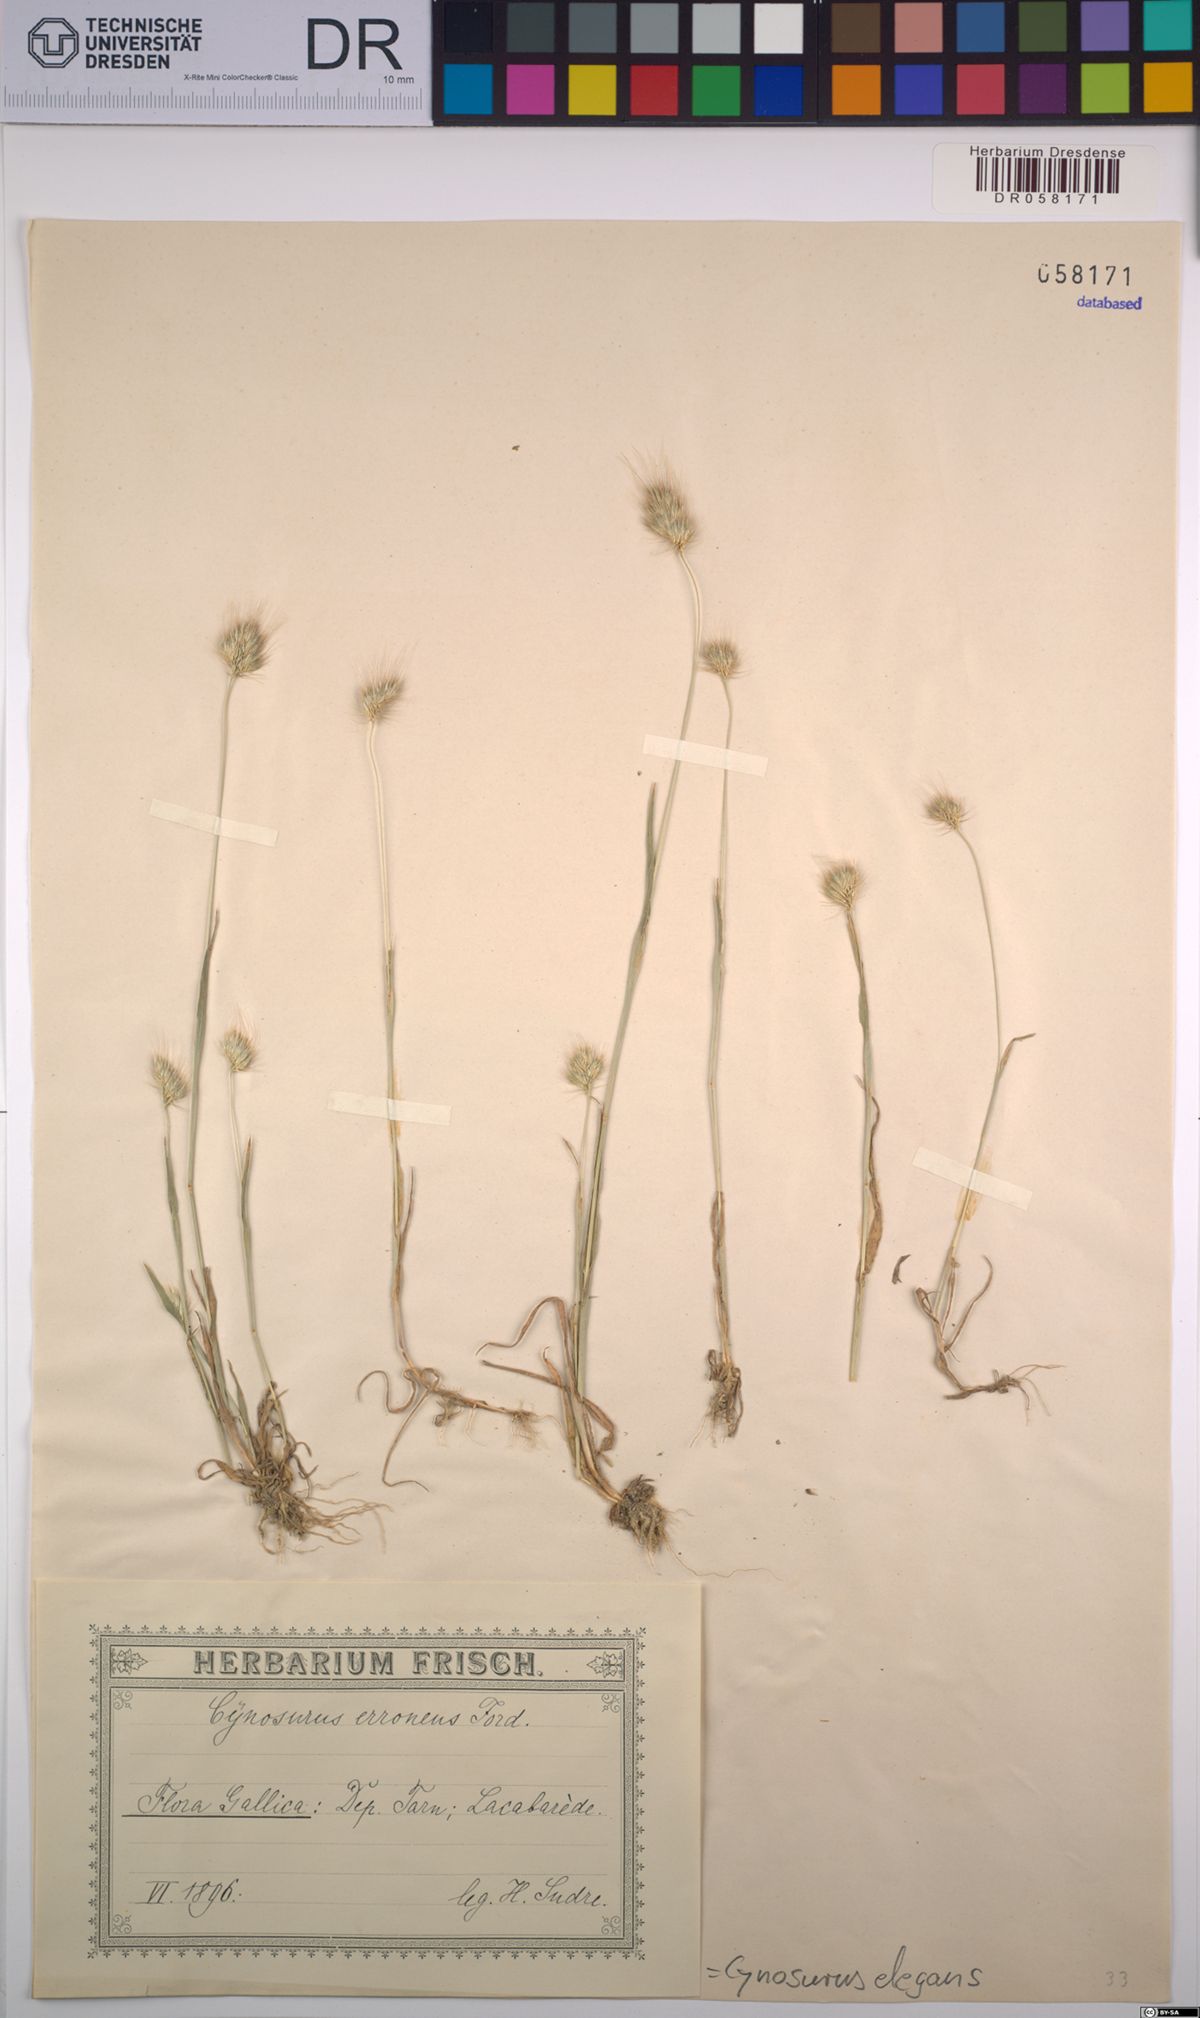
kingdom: Plantae
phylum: Tracheophyta
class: Liliopsida
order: Poales
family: Poaceae
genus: Cynosurus
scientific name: Cynosurus elegans
